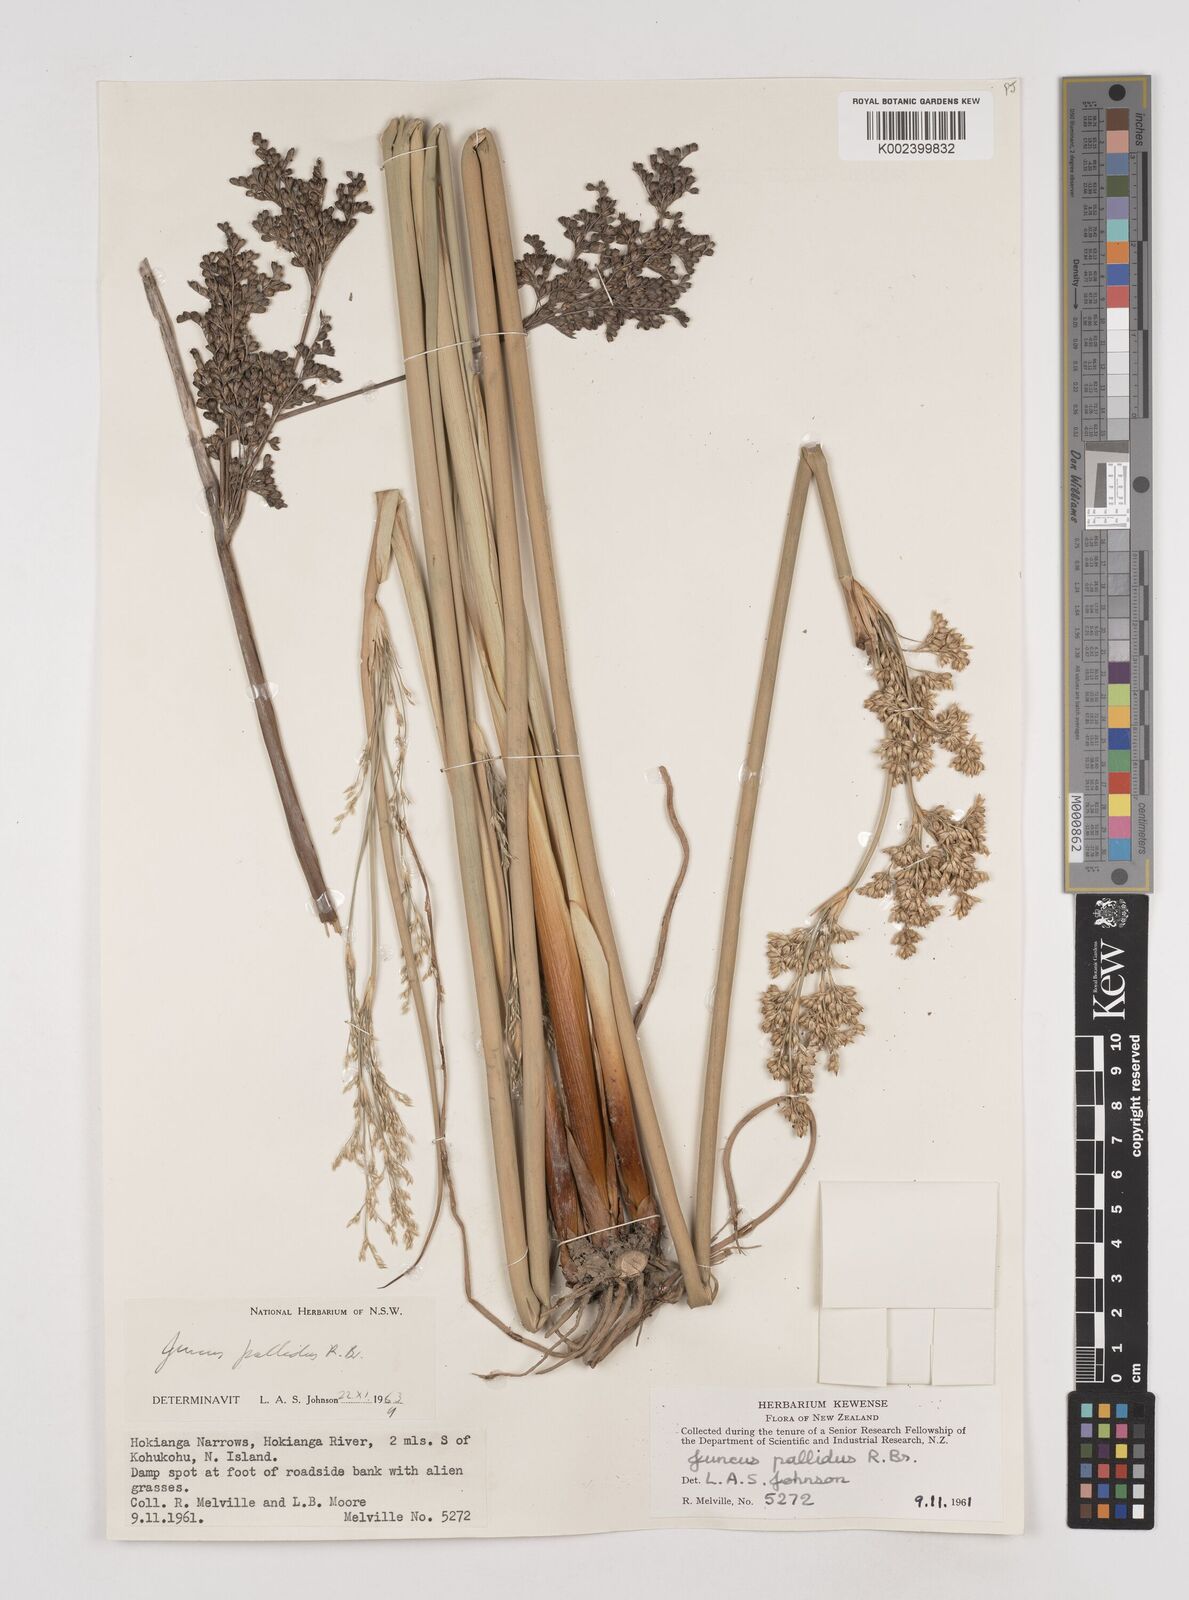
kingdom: Plantae
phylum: Tracheophyta
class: Liliopsida
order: Poales
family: Juncaceae
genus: Juncus
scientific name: Juncus pallidus
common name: Great soft-rush
